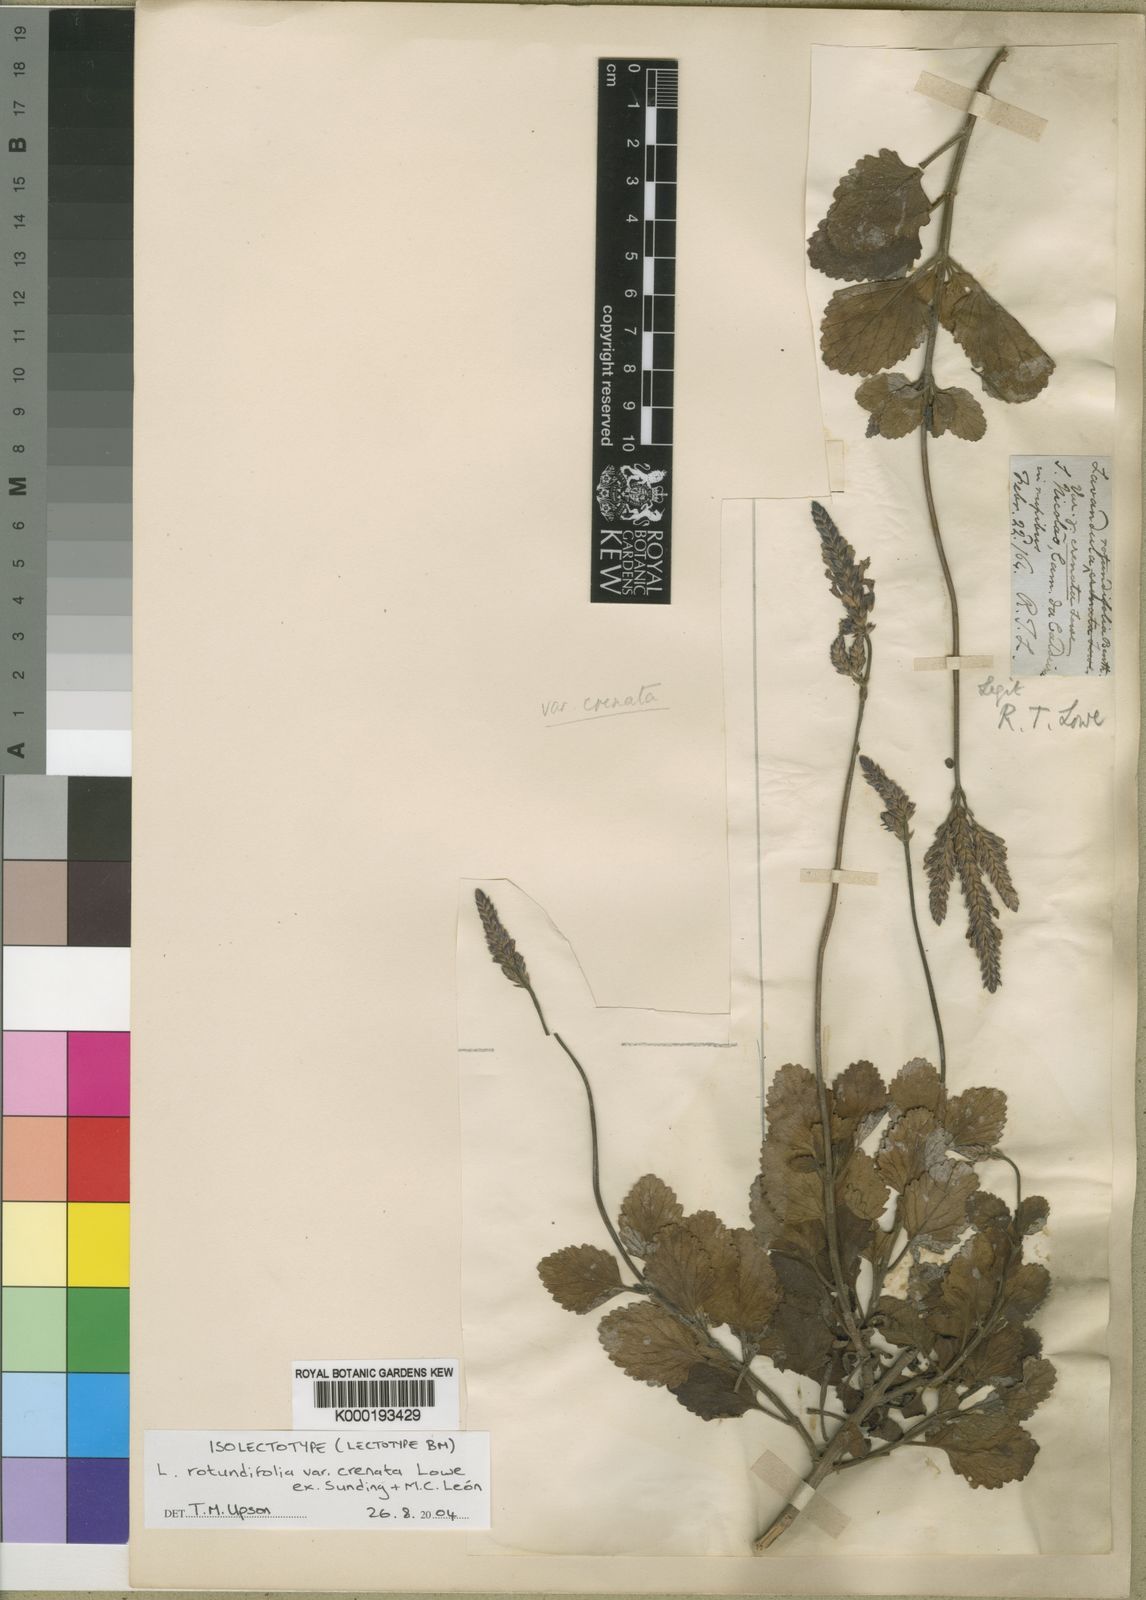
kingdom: Plantae
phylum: Tracheophyta
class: Magnoliopsida
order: Lamiales
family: Lamiaceae
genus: Lavandula
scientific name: Lavandula rotundifolia
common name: Round-leaf lavender
